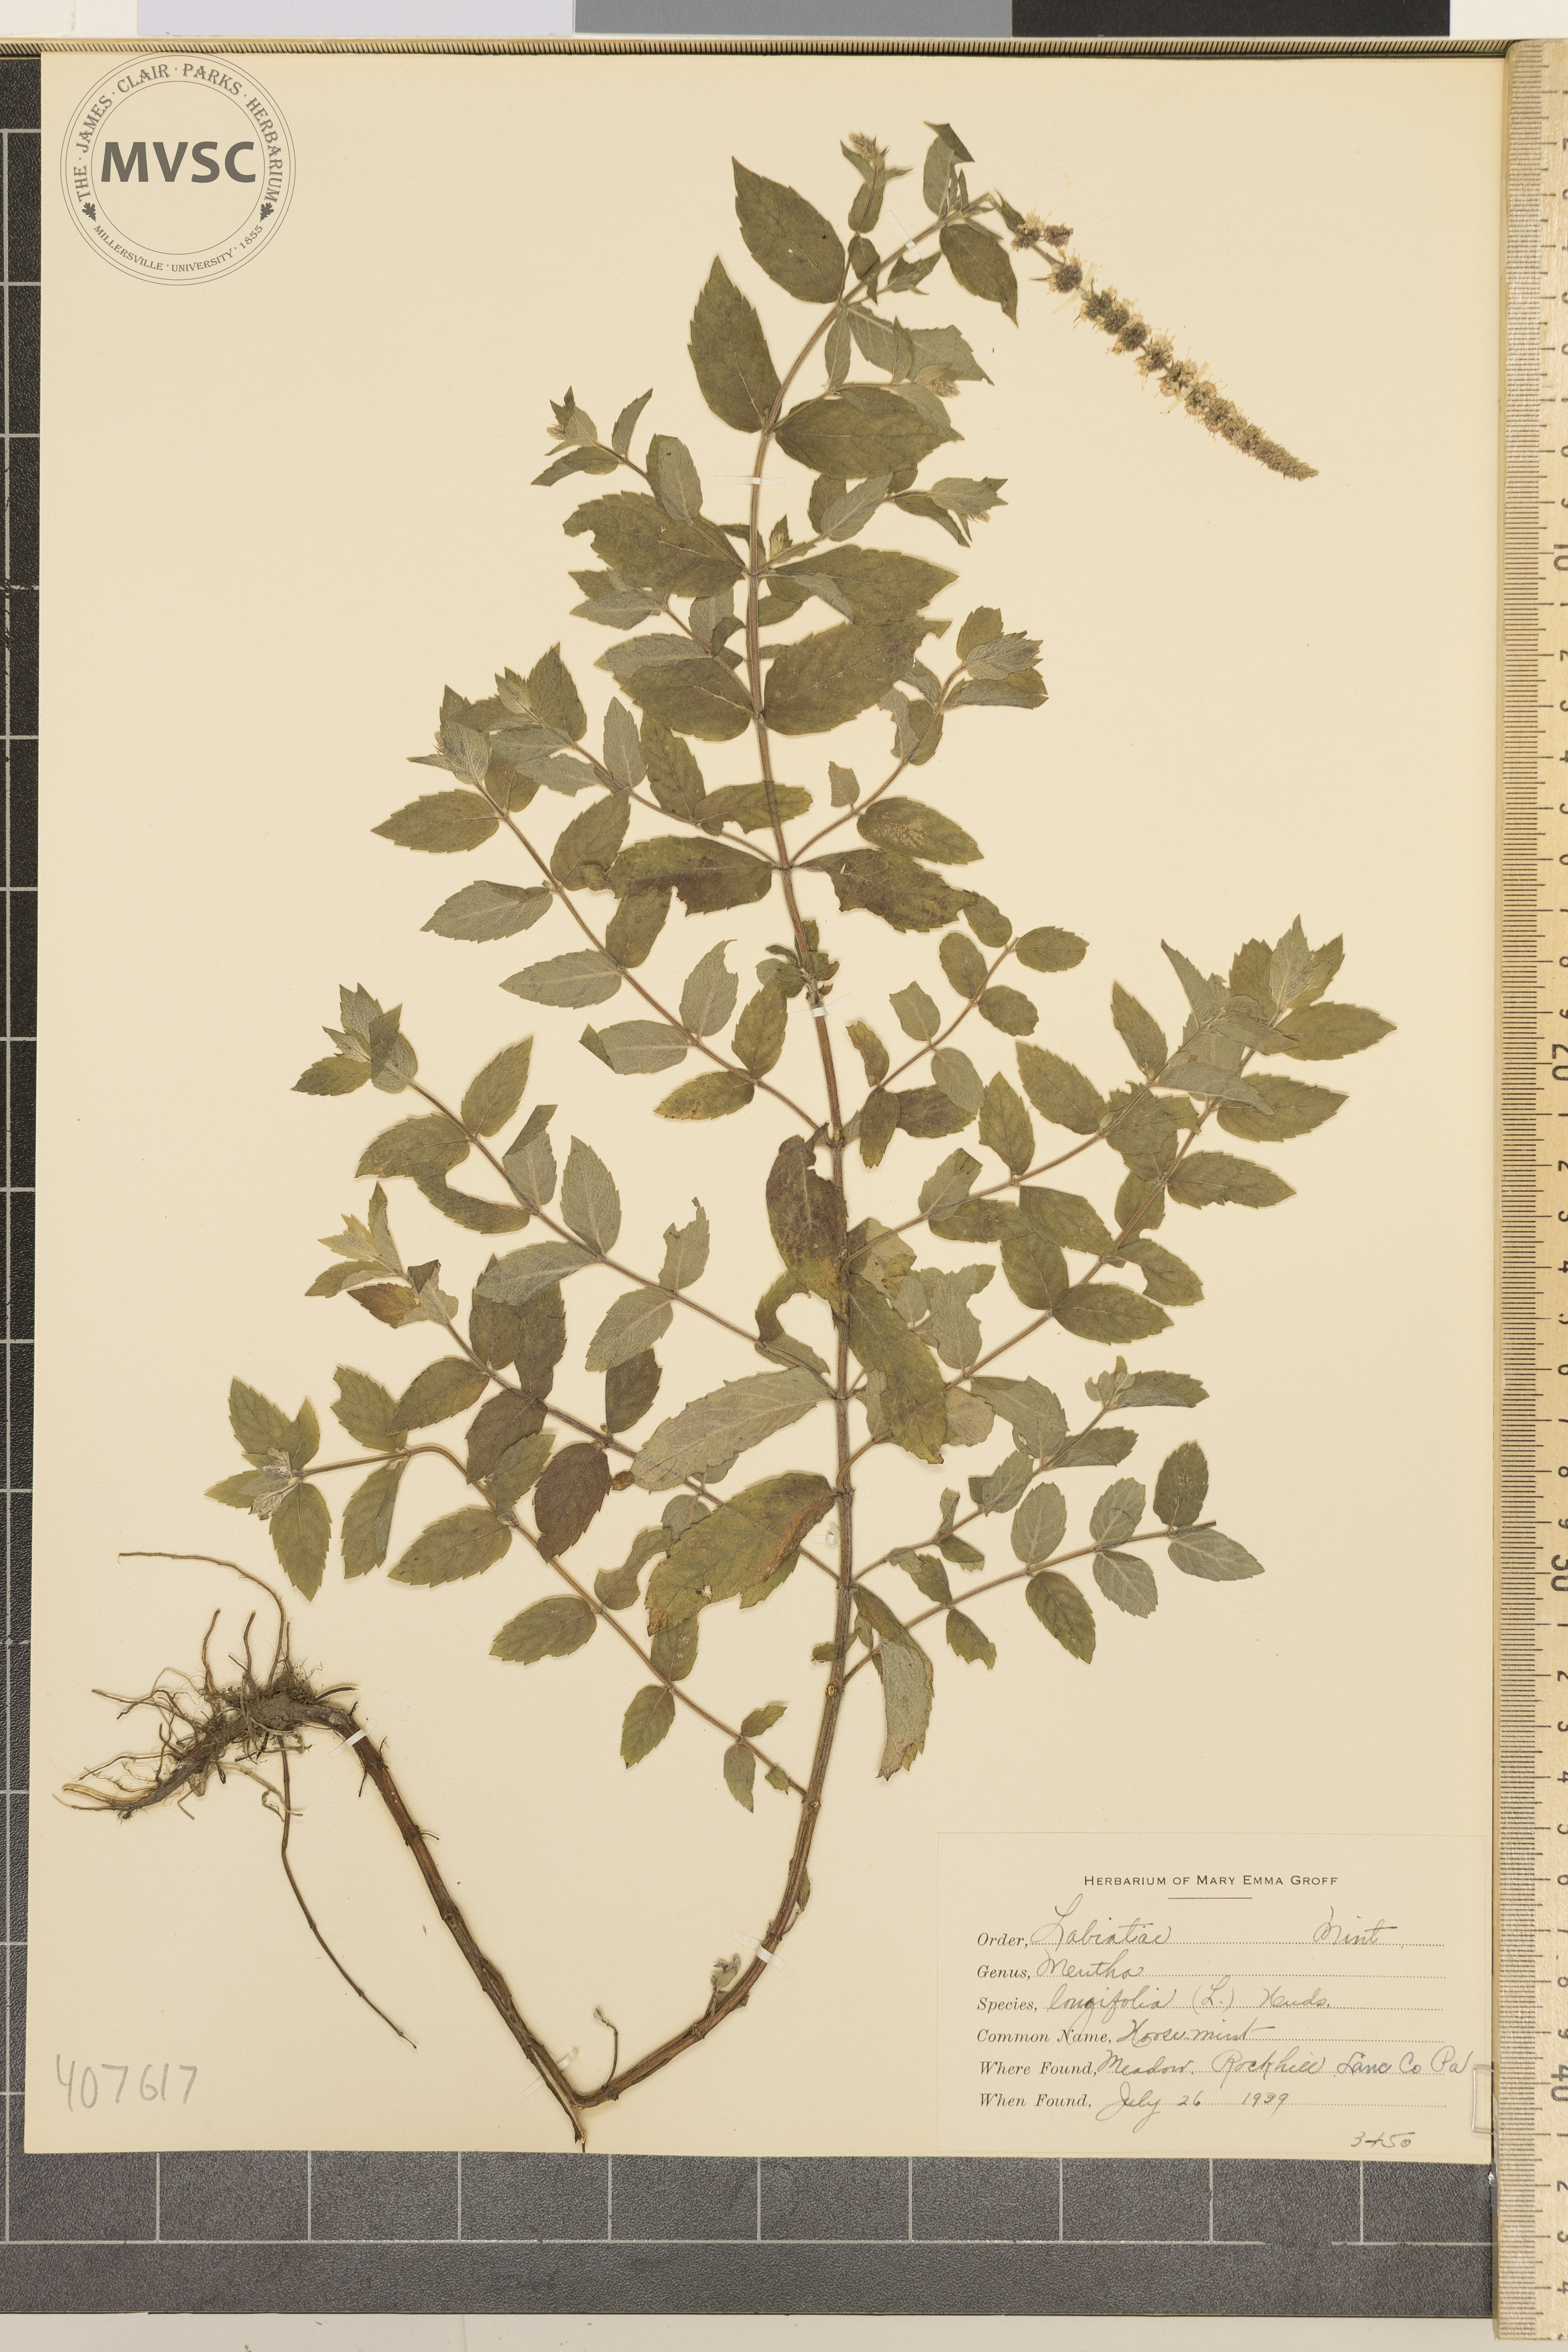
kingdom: Plantae
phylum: Tracheophyta
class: Magnoliopsida
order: Lamiales
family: Lamiaceae
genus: Mentha
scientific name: Mentha longifolia
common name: horse mint
